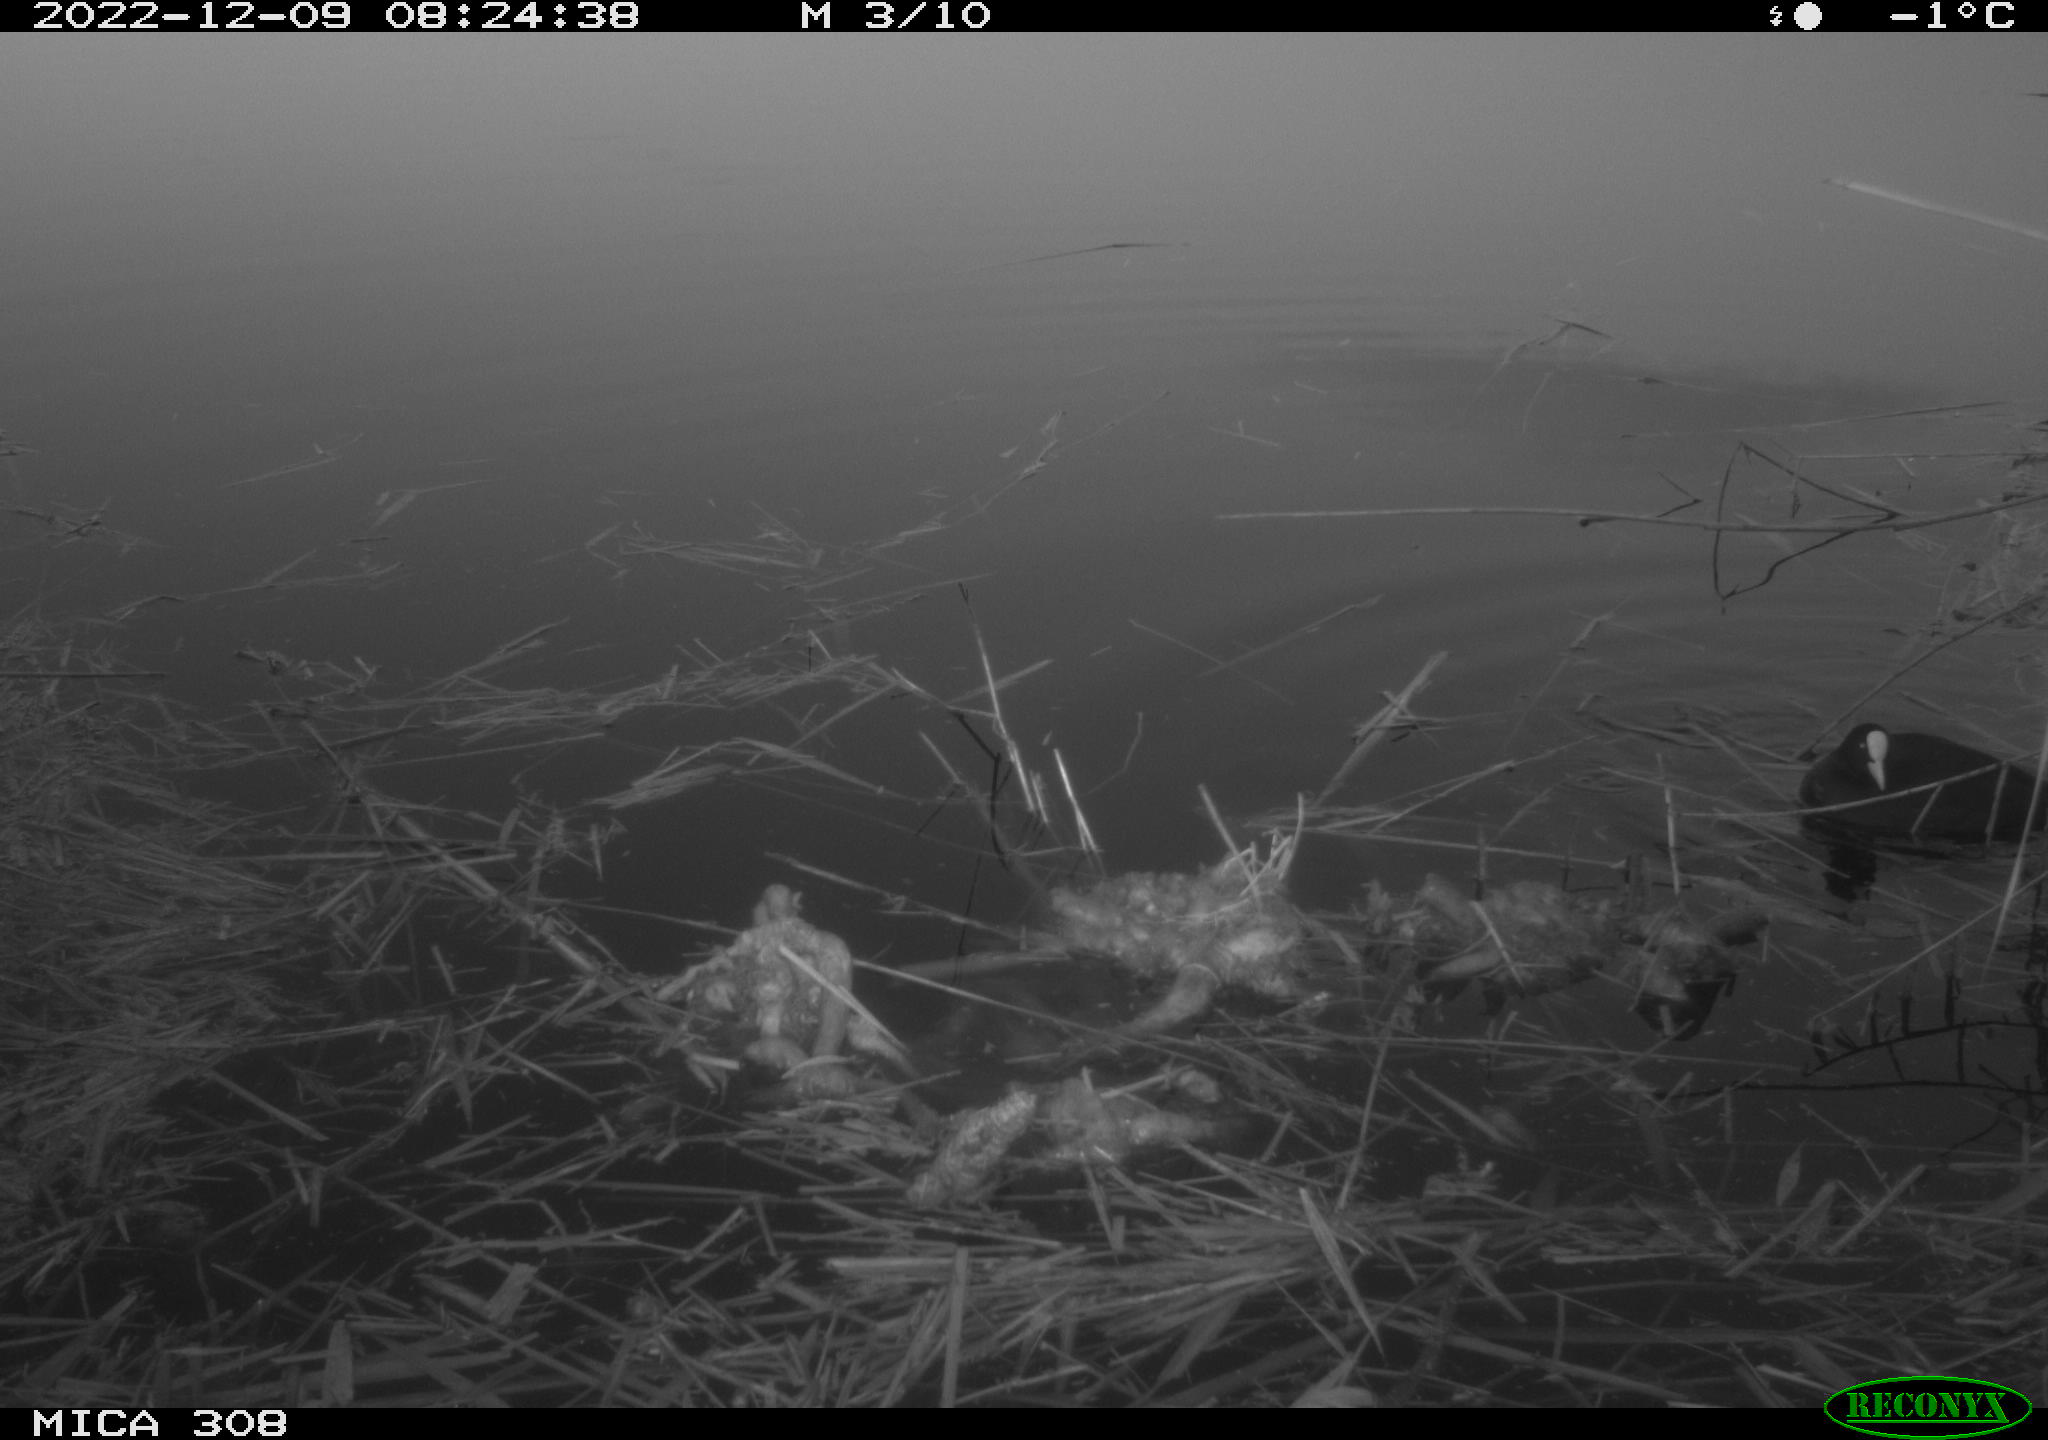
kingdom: Animalia
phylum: Chordata
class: Aves
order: Gruiformes
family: Rallidae
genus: Fulica
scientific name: Fulica atra
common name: Eurasian coot
